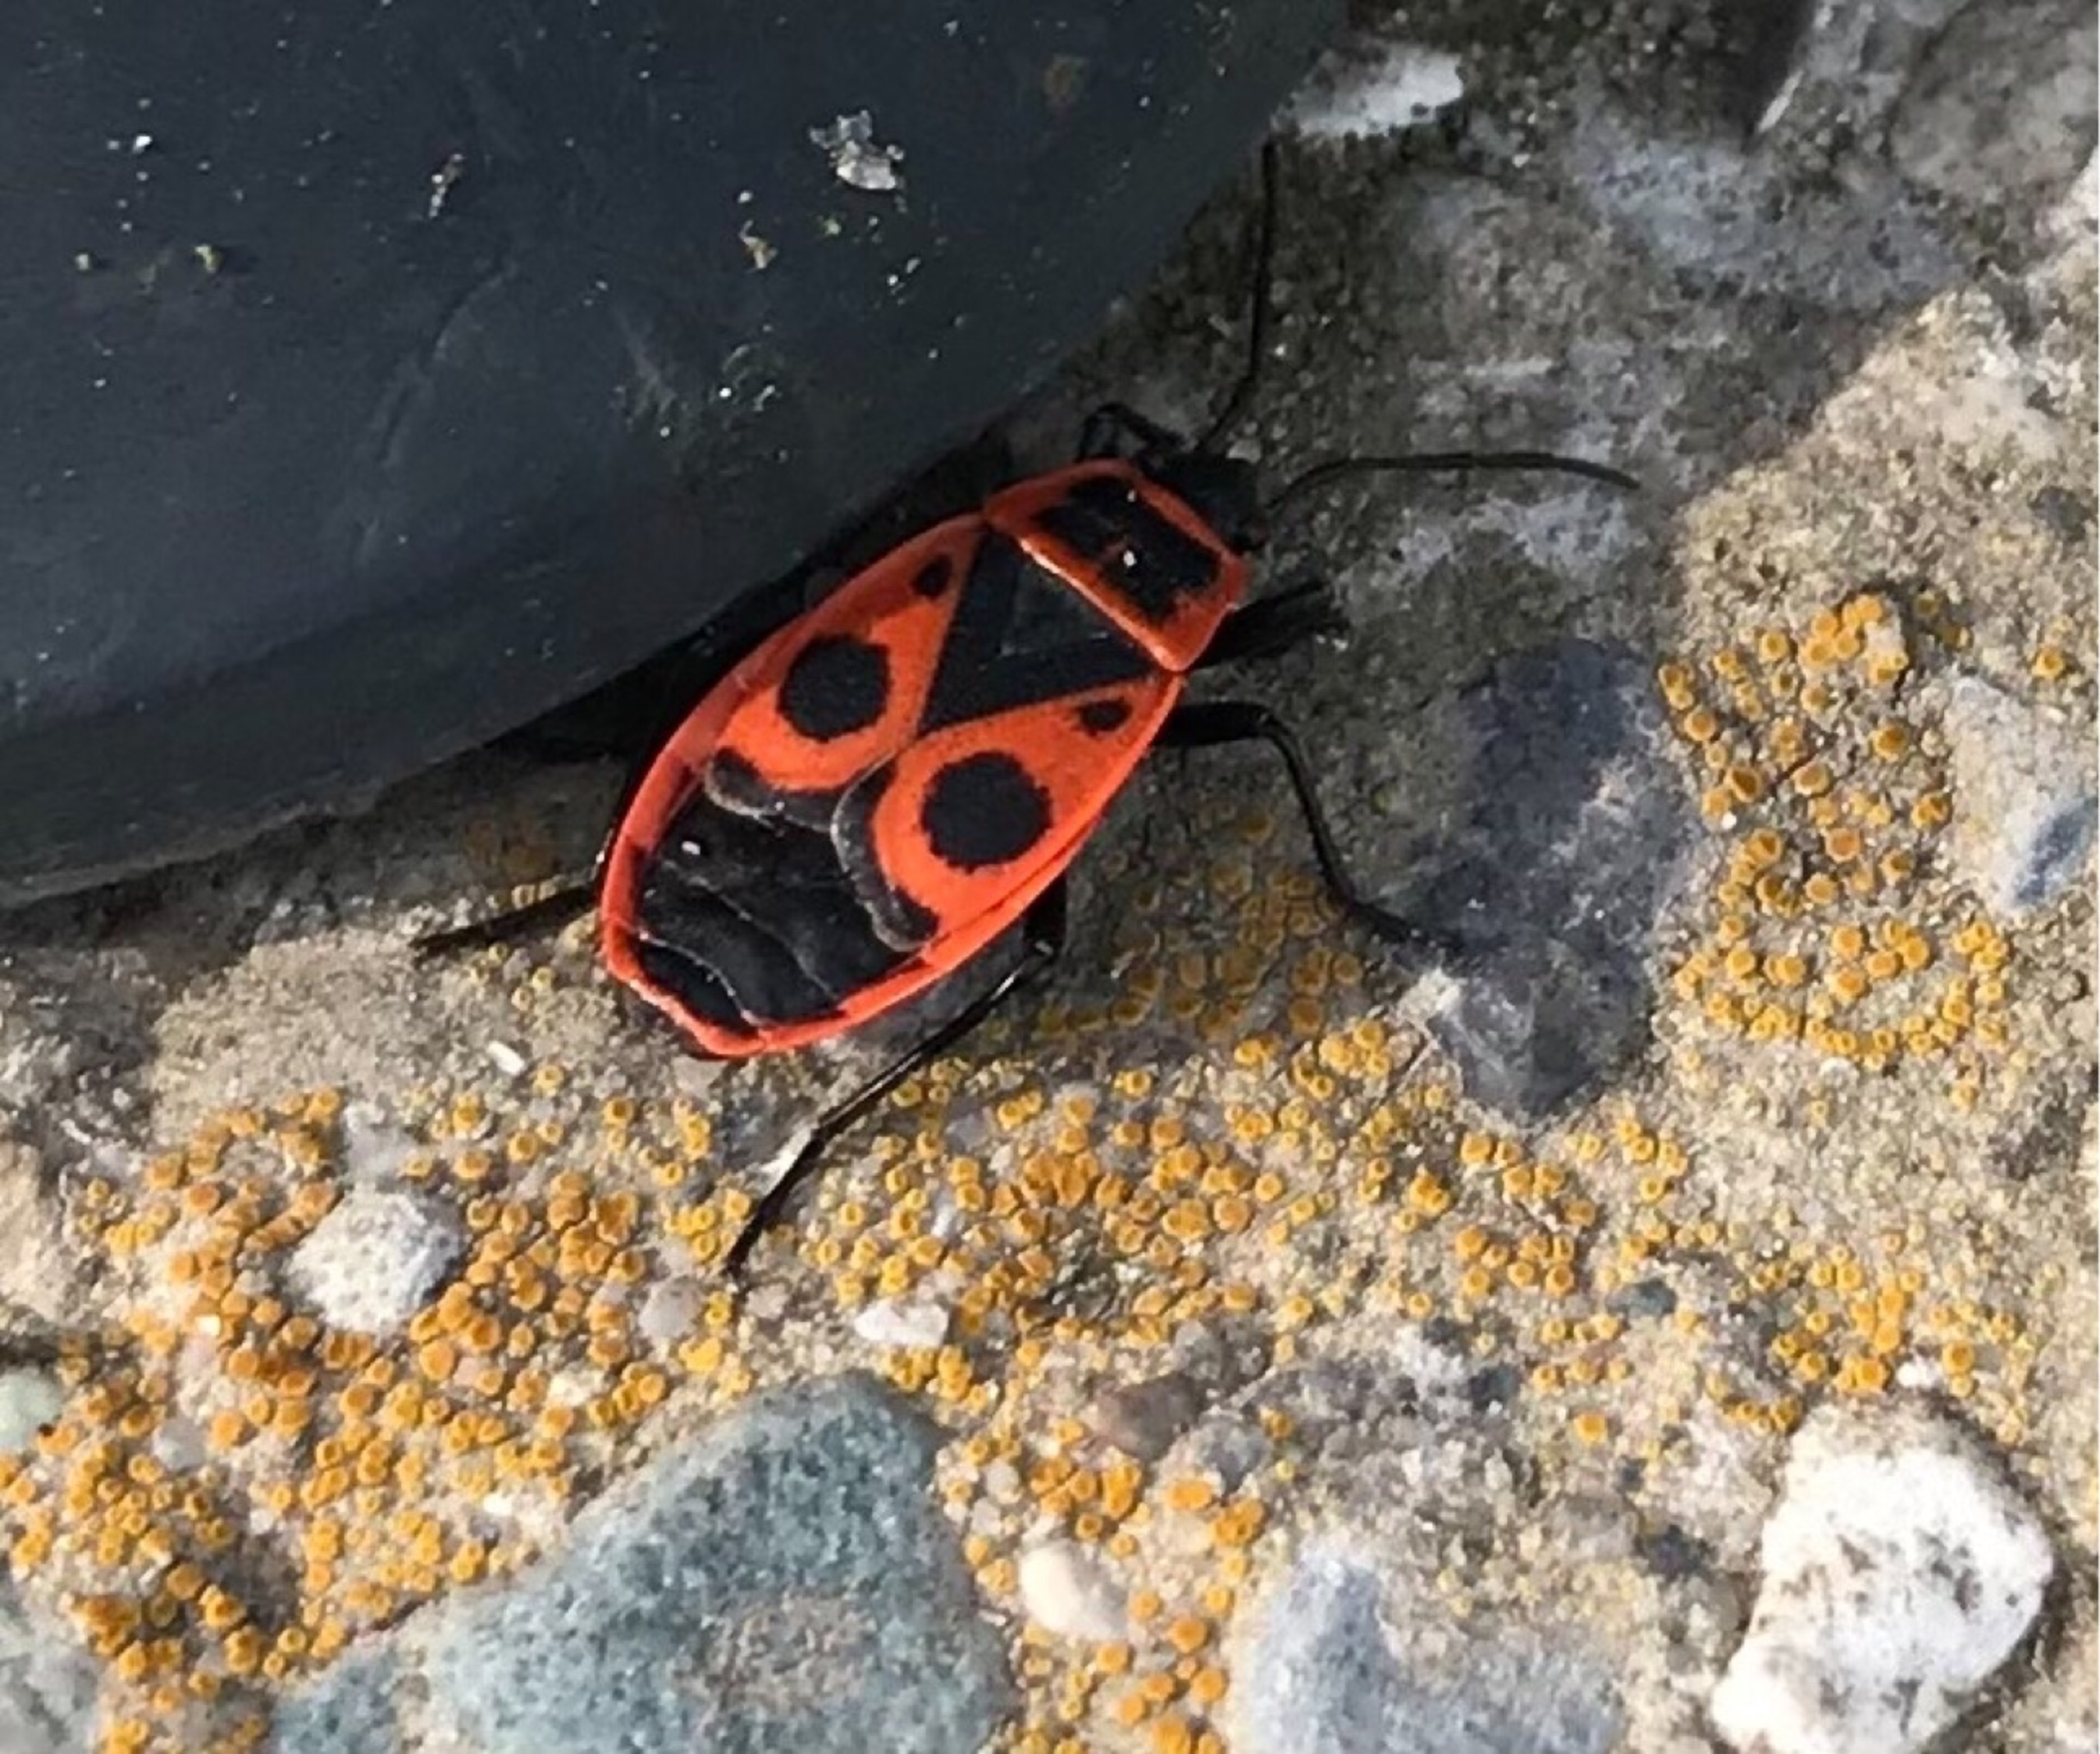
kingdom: Animalia
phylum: Arthropoda
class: Insecta
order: Hemiptera
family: Pyrrhocoridae
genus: Pyrrhocoris
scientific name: Pyrrhocoris apterus
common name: Ildtæge
